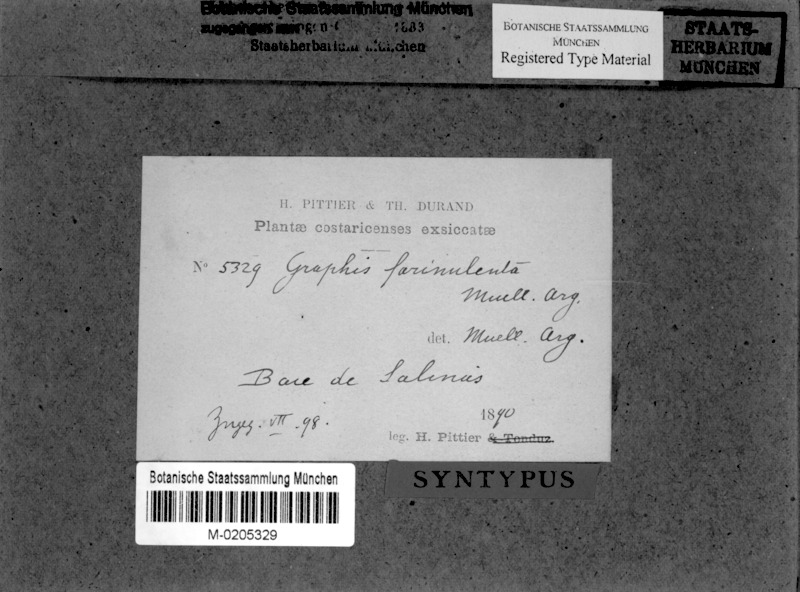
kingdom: Fungi
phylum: Ascomycota
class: Lecanoromycetes
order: Ostropales
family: Graphidaceae
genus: Allographa
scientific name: Allographa farinulenta
